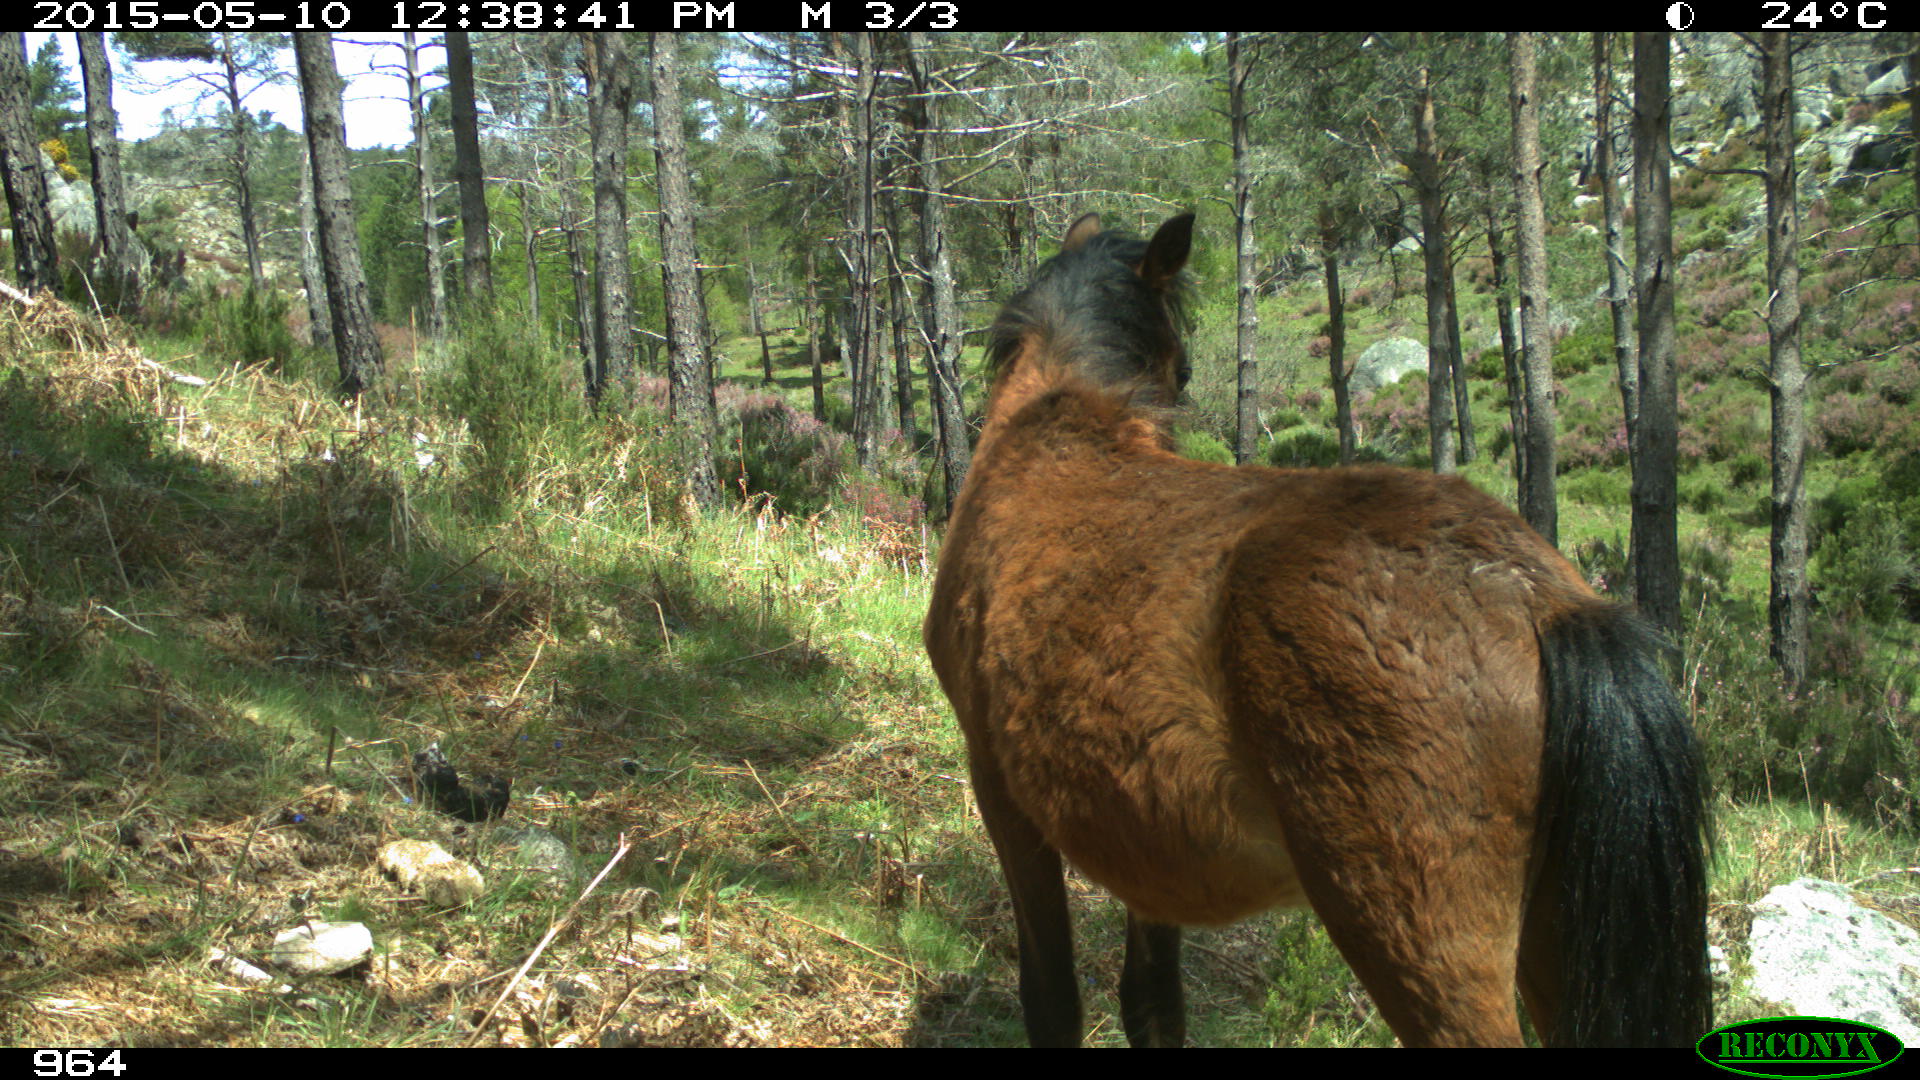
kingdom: Animalia
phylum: Chordata
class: Mammalia
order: Perissodactyla
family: Equidae
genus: Equus
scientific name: Equus caballus
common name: Horse
